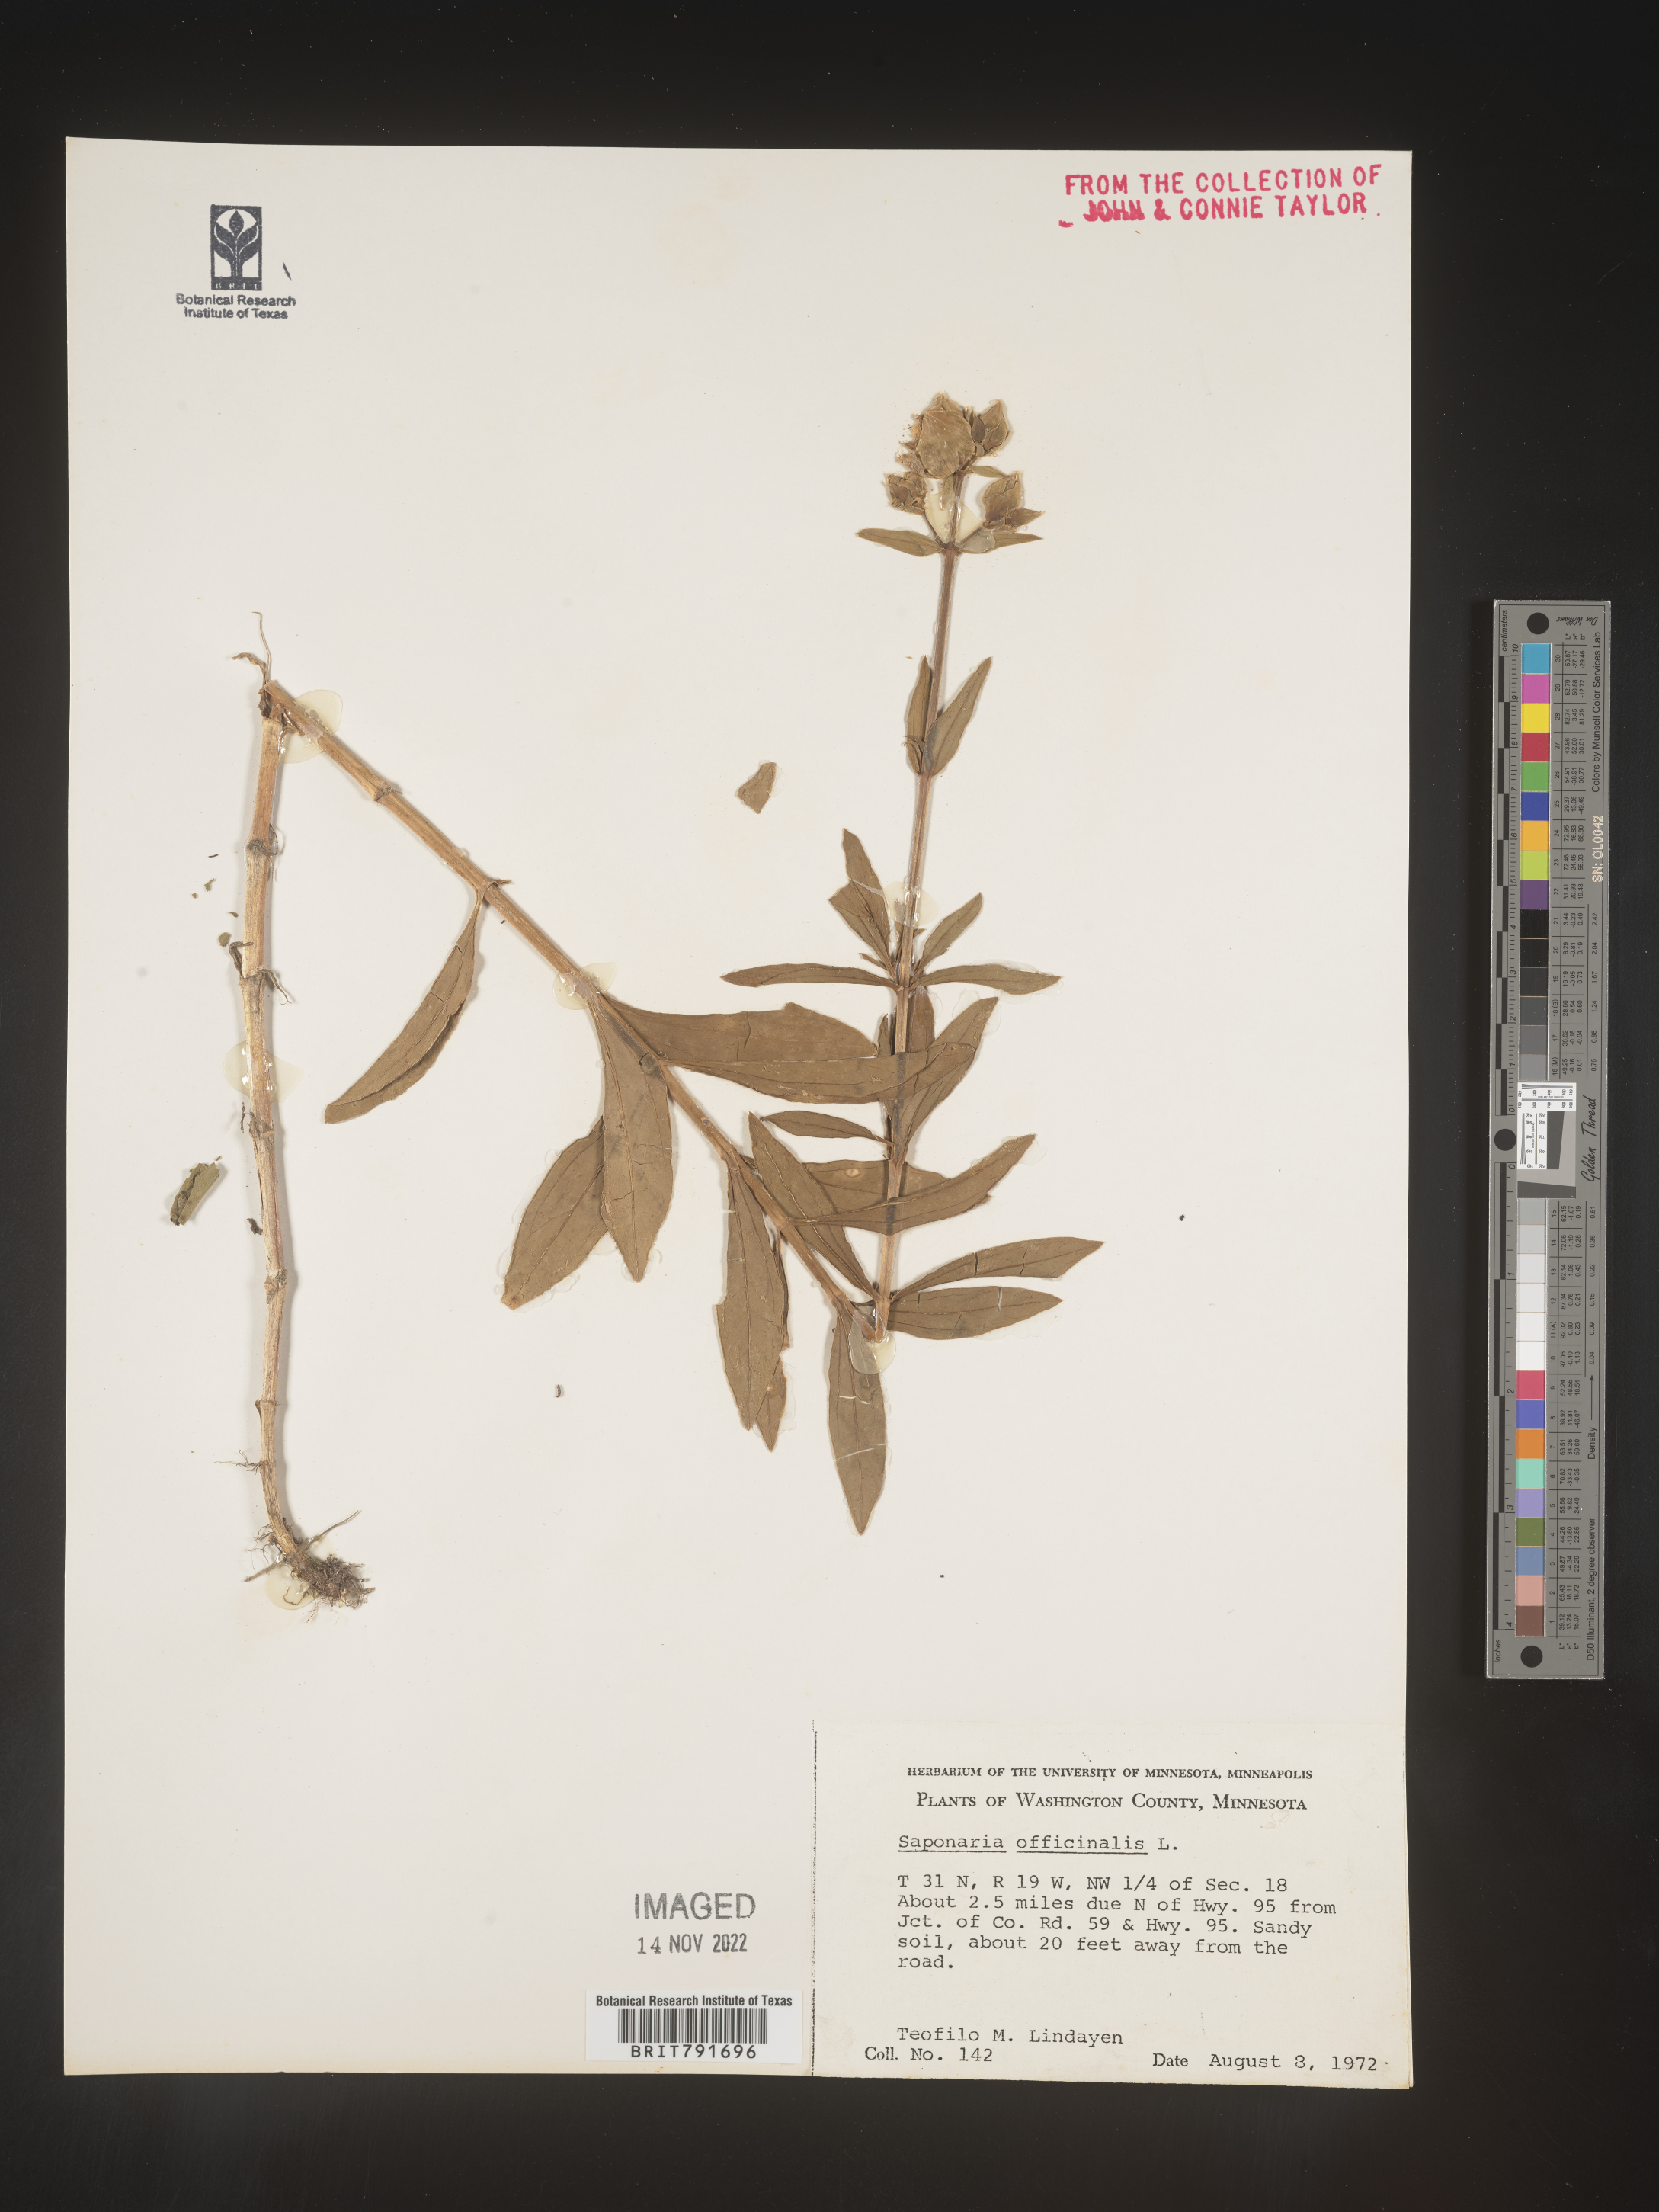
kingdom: Plantae
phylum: Tracheophyta
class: Magnoliopsida
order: Caryophyllales
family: Caryophyllaceae
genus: Saponaria
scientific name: Saponaria officinalis
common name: Soapwort
